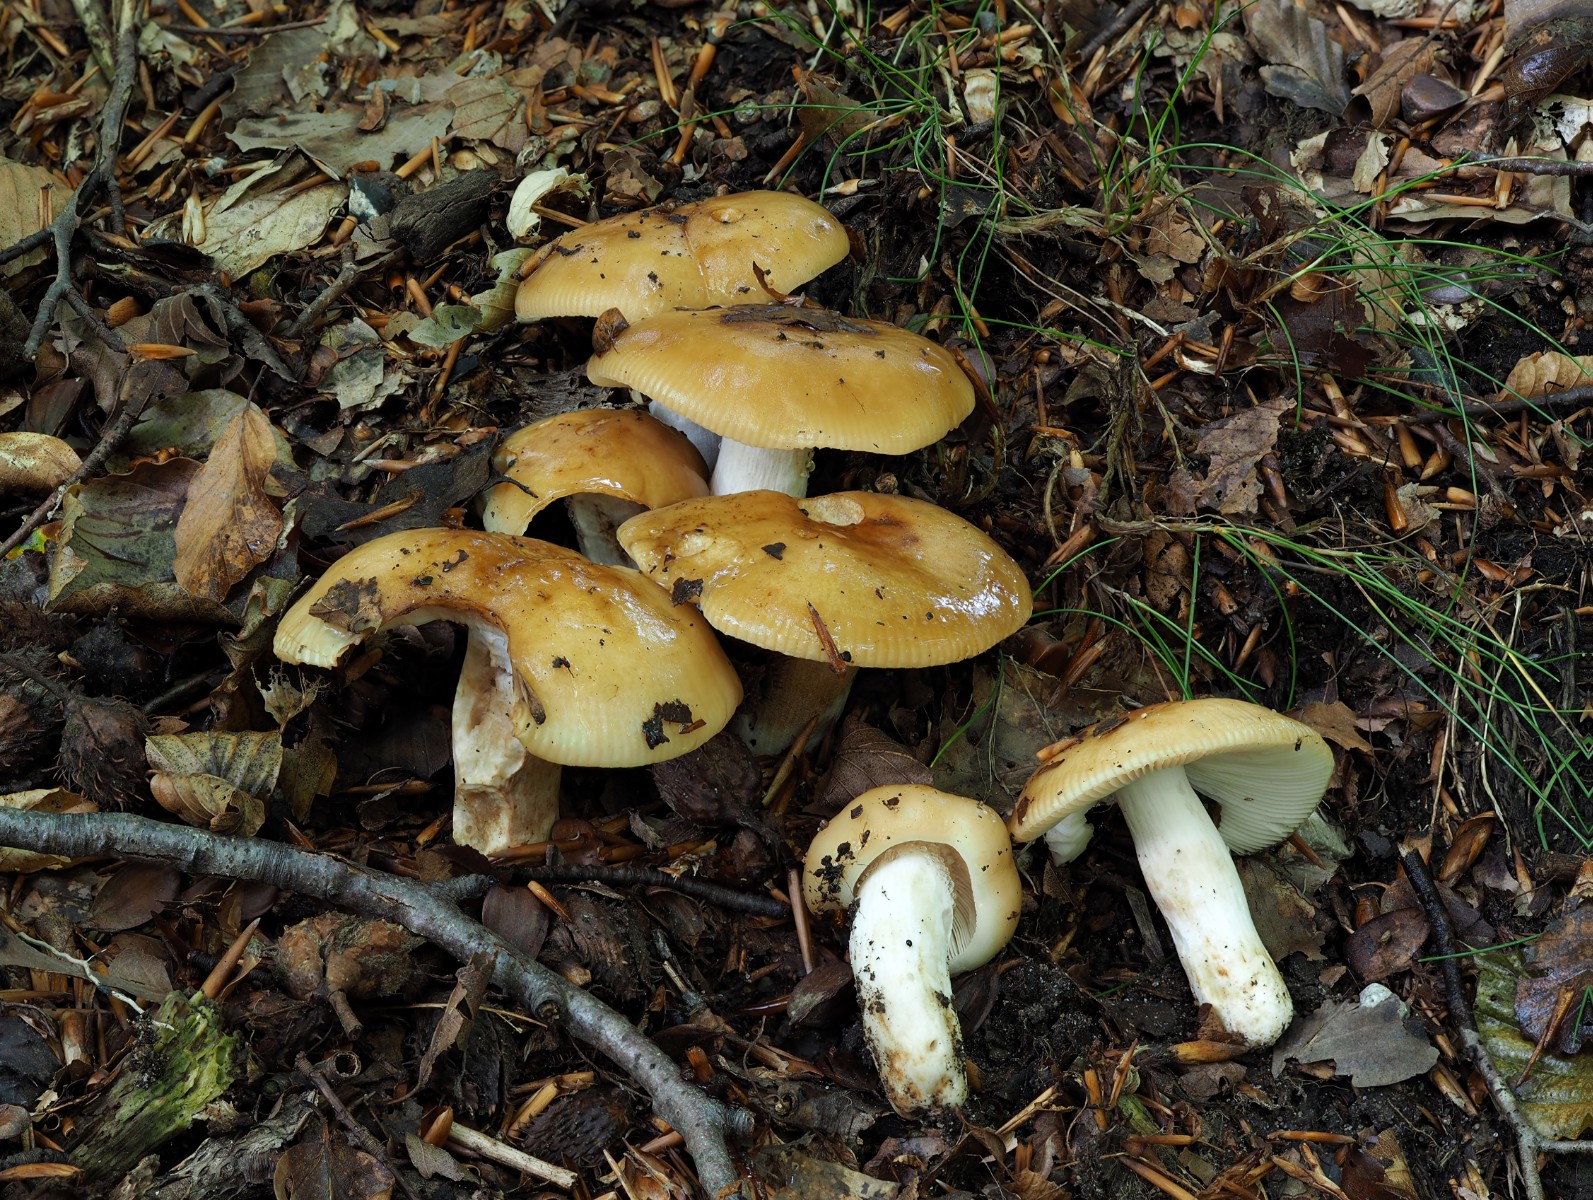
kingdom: Fungi
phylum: Basidiomycota
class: Agaricomycetes
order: Russulales
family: Russulaceae
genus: Russula
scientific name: Russula grata
